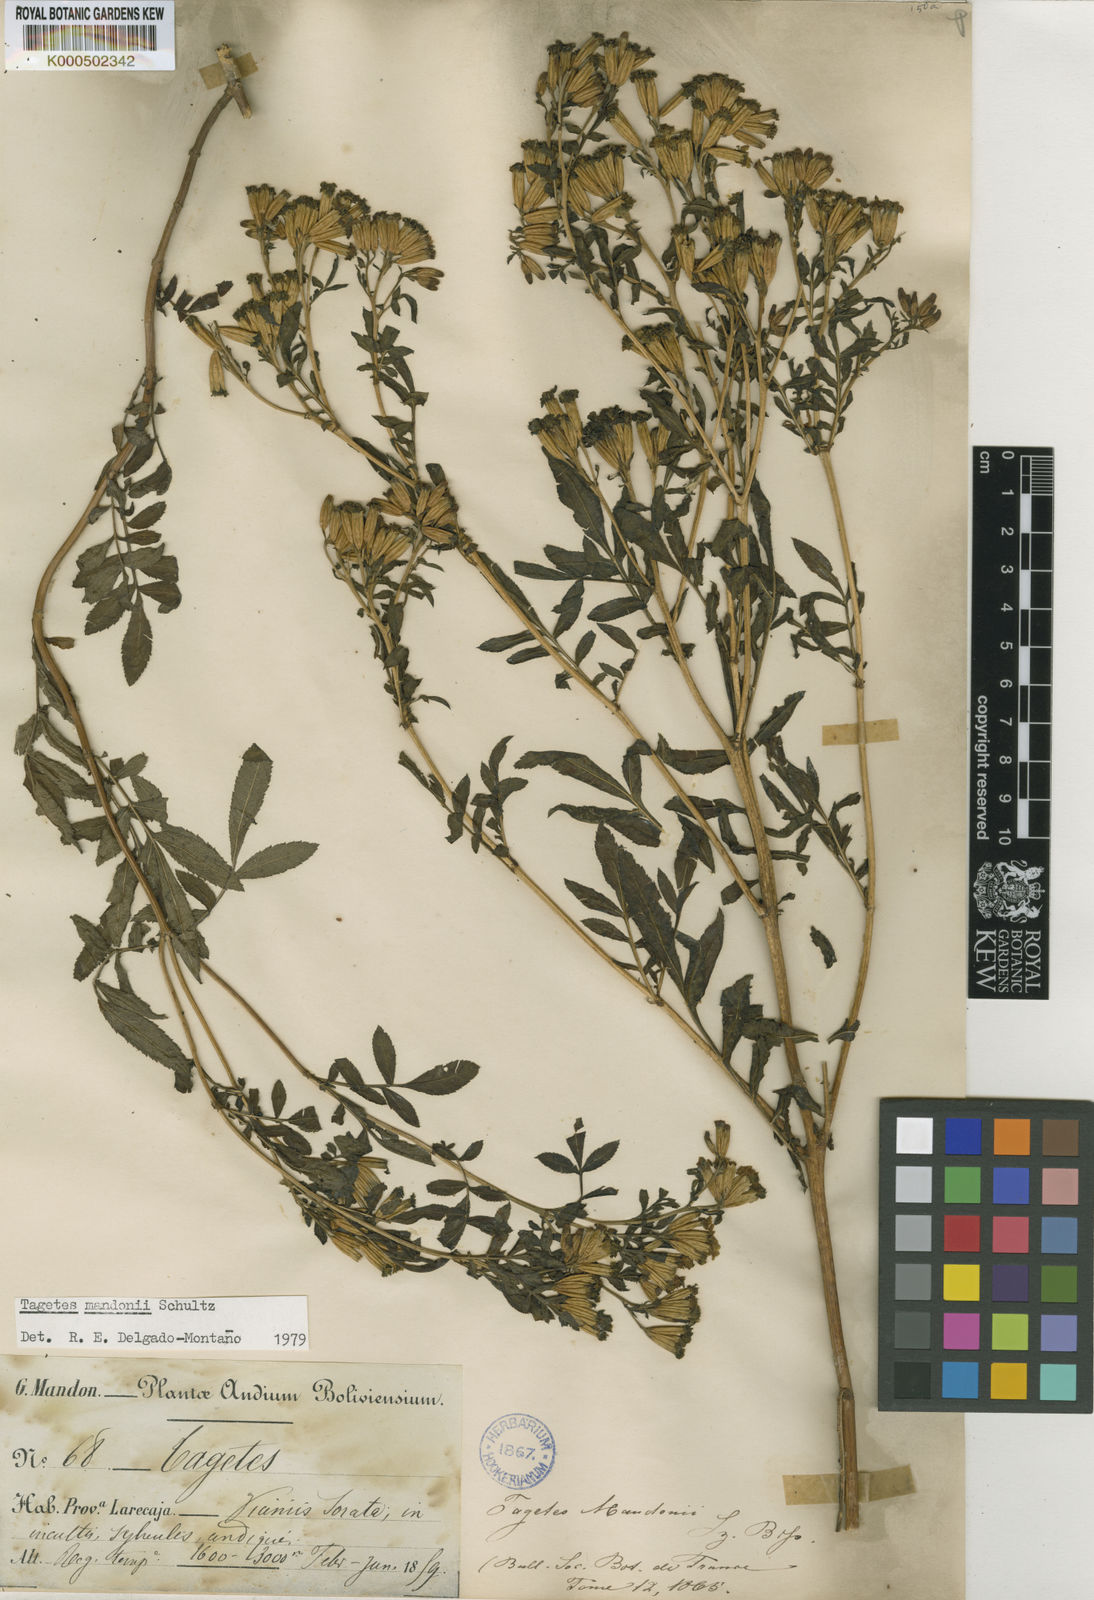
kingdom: Plantae
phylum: Tracheophyta
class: Magnoliopsida
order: Asterales
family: Asteraceae
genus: Tagetes
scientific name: Tagetes mandonii
